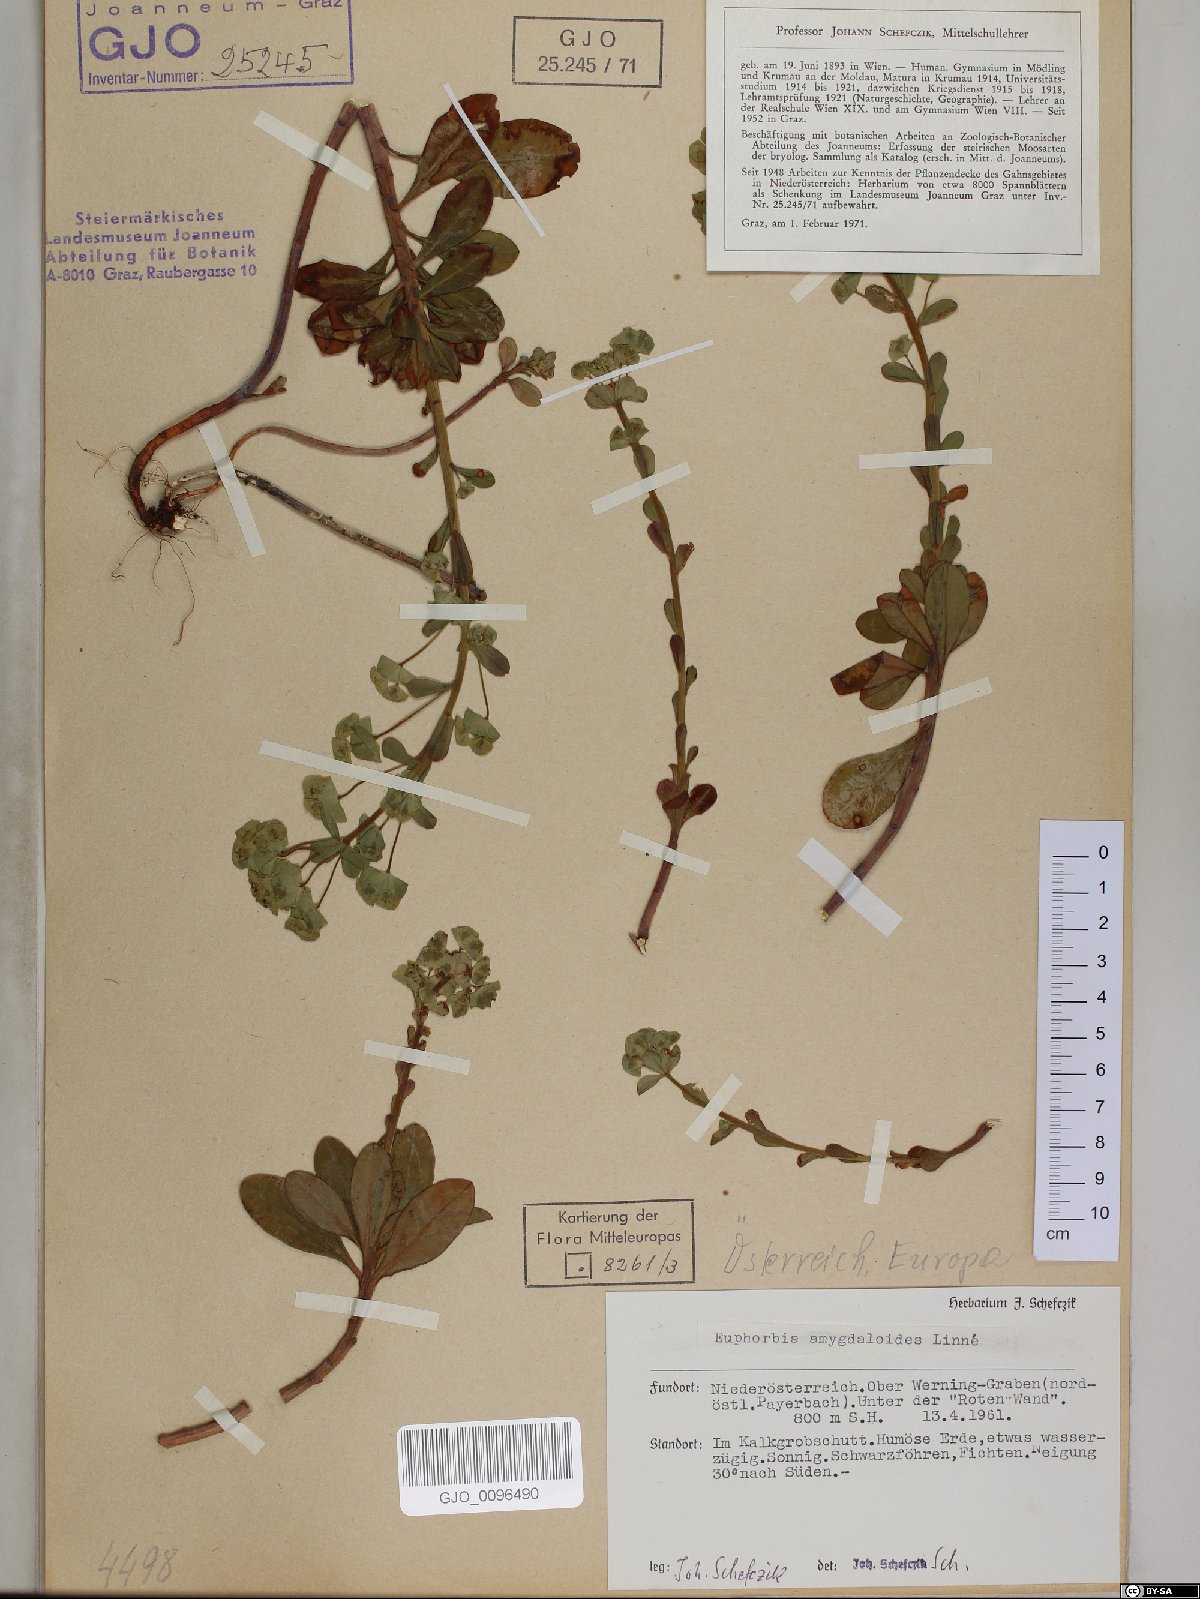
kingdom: Plantae
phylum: Tracheophyta
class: Magnoliopsida
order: Malpighiales
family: Euphorbiaceae
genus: Euphorbia
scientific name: Euphorbia amygdaloides
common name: Wood spurge
